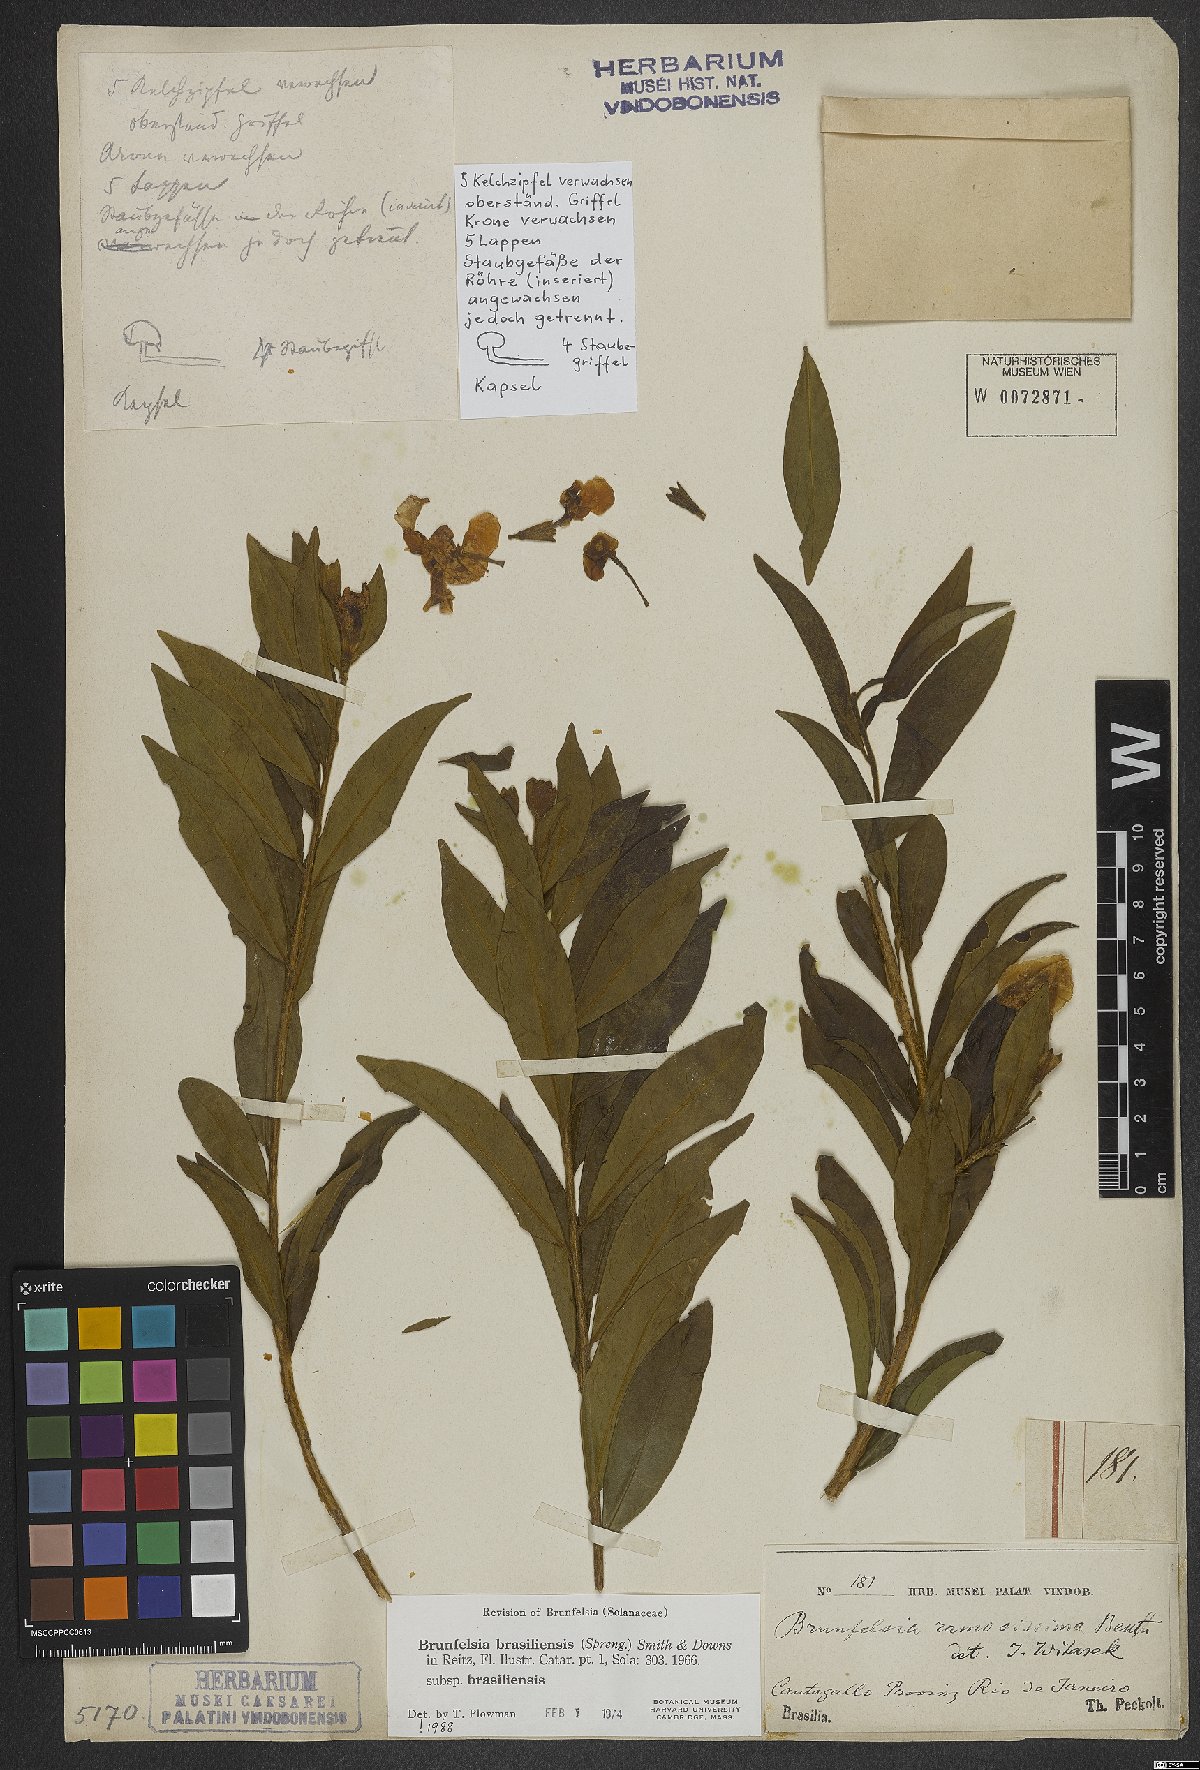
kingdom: Plantae
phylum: Tracheophyta
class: Magnoliopsida
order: Solanales
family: Solanaceae
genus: Brunfelsia
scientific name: Brunfelsia brasiliensis
